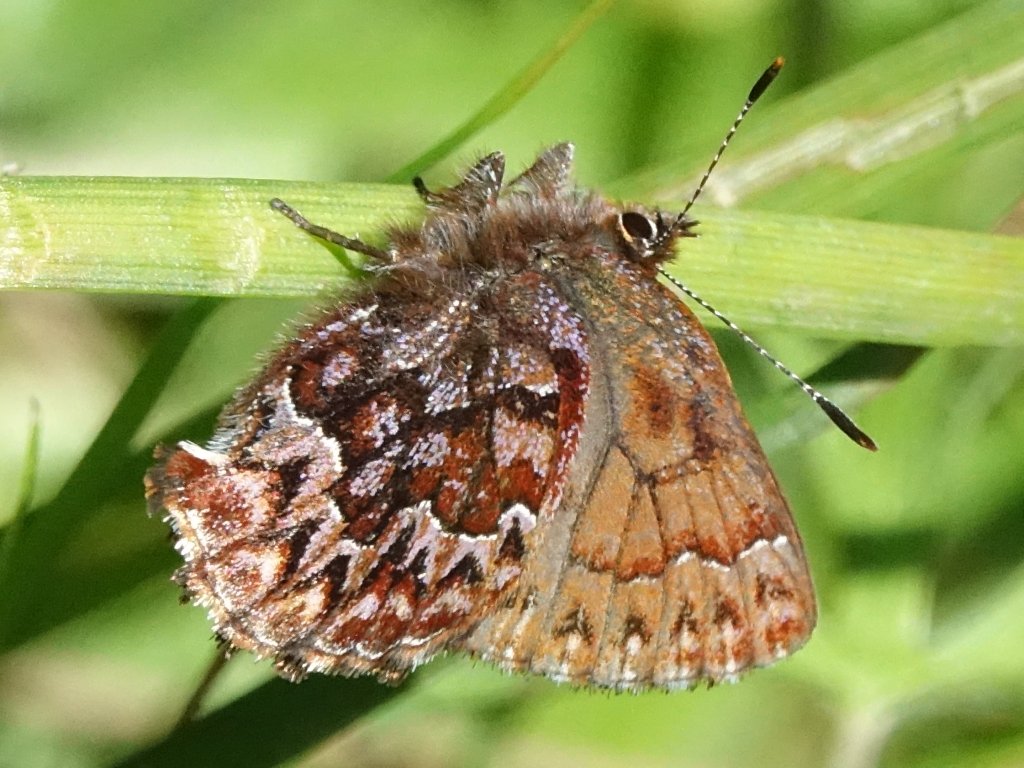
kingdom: Animalia
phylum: Arthropoda
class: Insecta
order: Lepidoptera
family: Lycaenidae
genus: Incisalia
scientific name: Incisalia eryphon
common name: Western Pine Elfin
